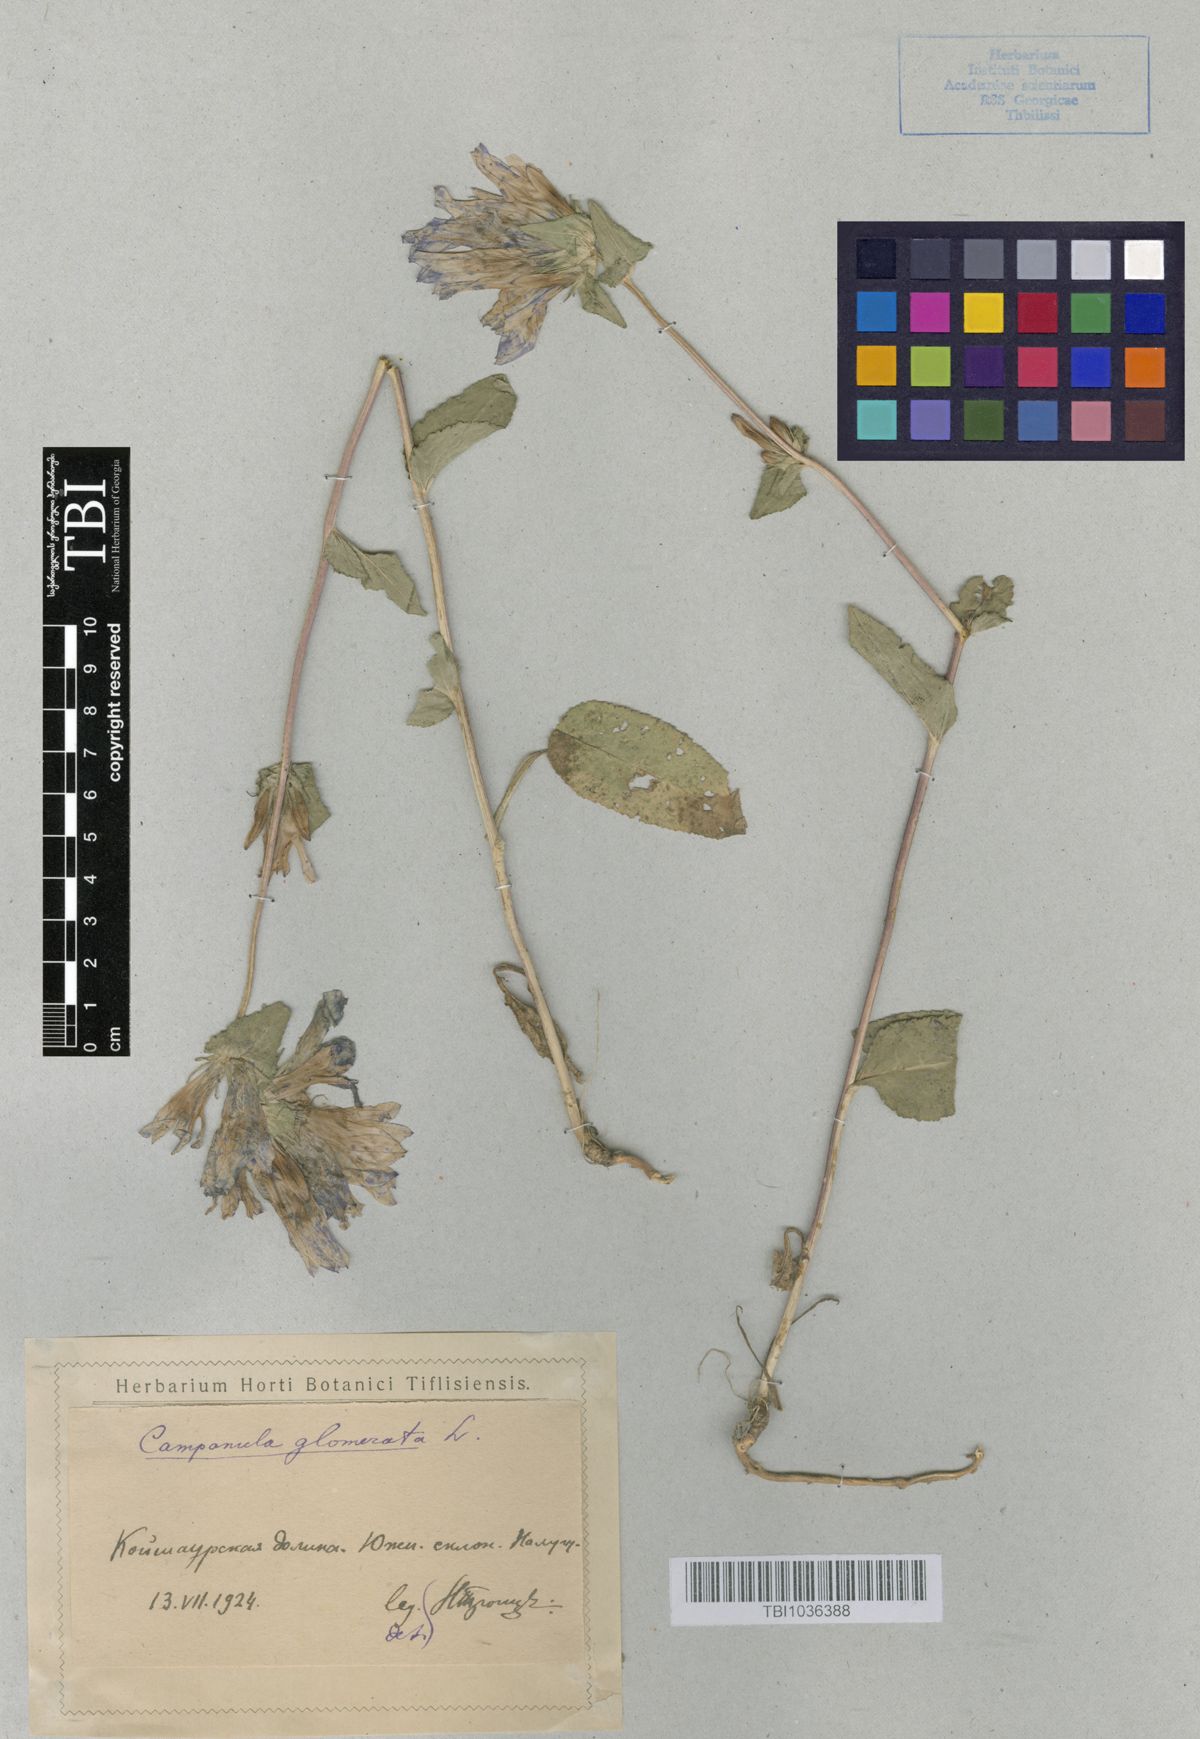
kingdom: Plantae
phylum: Tracheophyta
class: Magnoliopsida
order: Asterales
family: Campanulaceae
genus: Campanula
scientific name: Campanula glomerata
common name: Clustered bellflower
